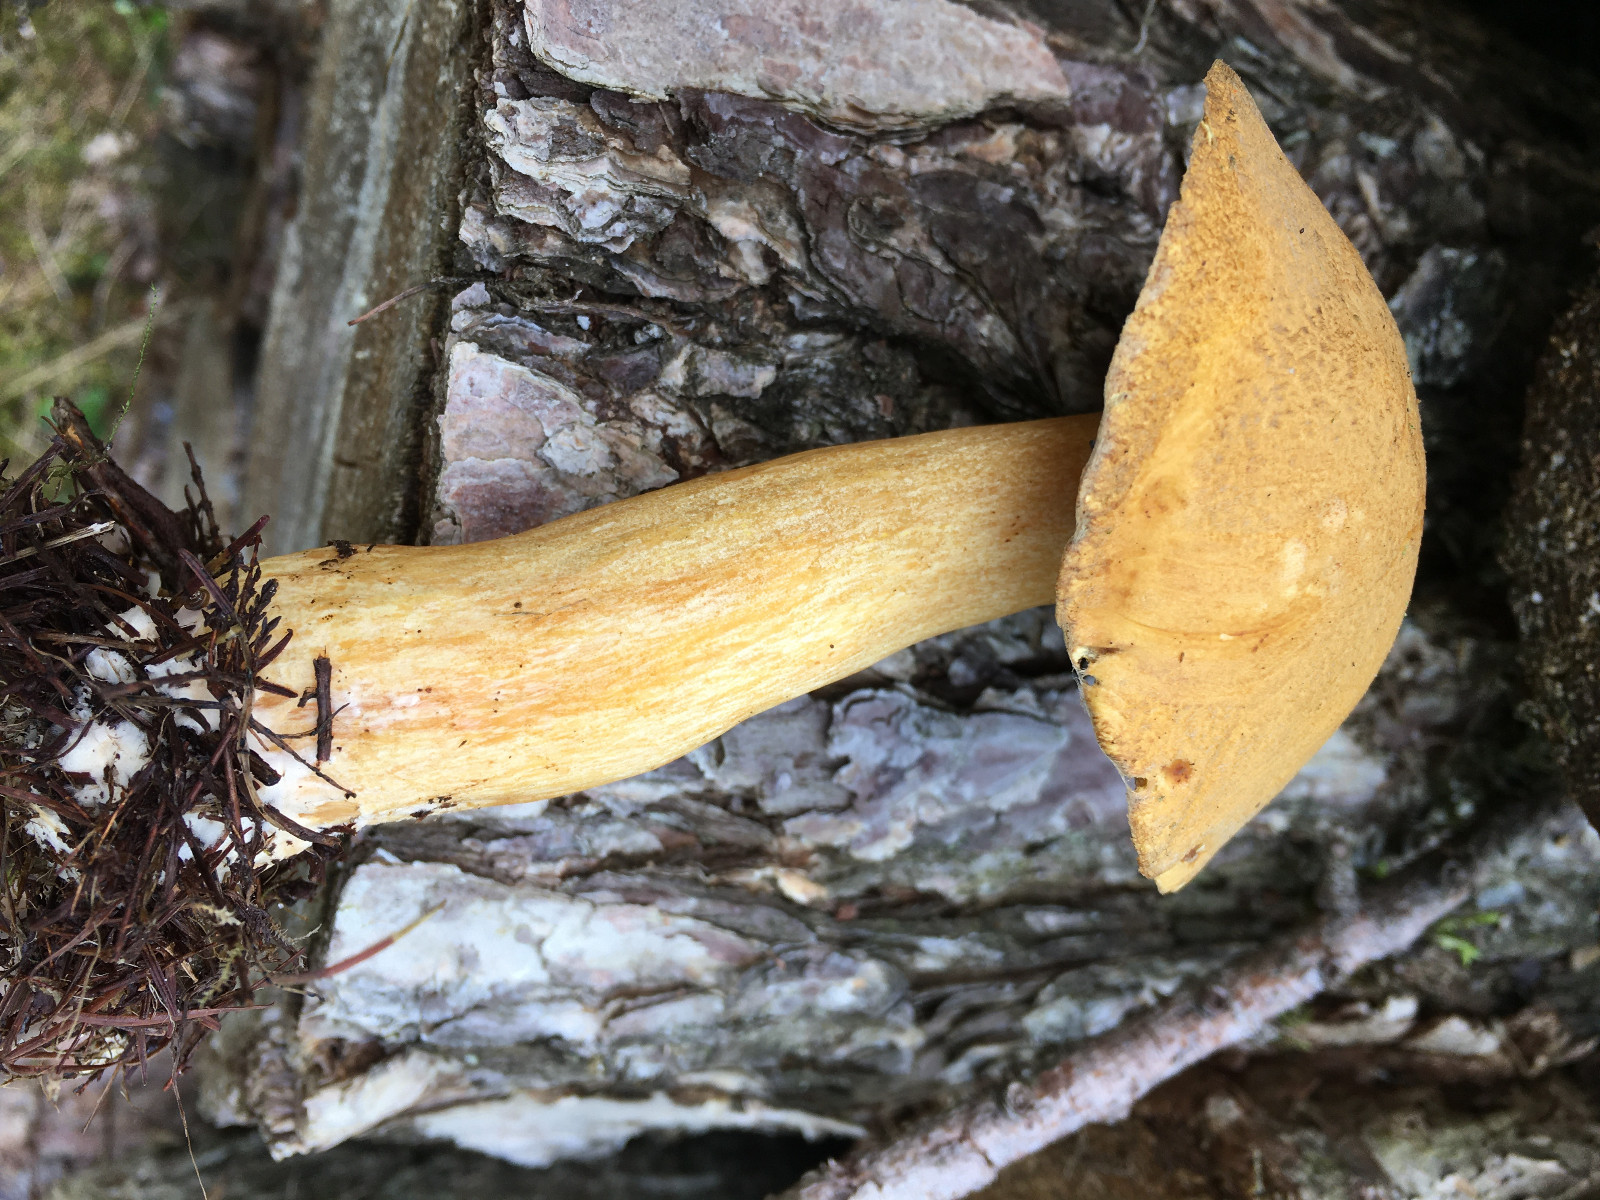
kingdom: Fungi
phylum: Basidiomycota
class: Agaricomycetes
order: Boletales
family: Suillaceae
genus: Suillus
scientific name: Suillus variegatus
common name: broget slimrørhat
